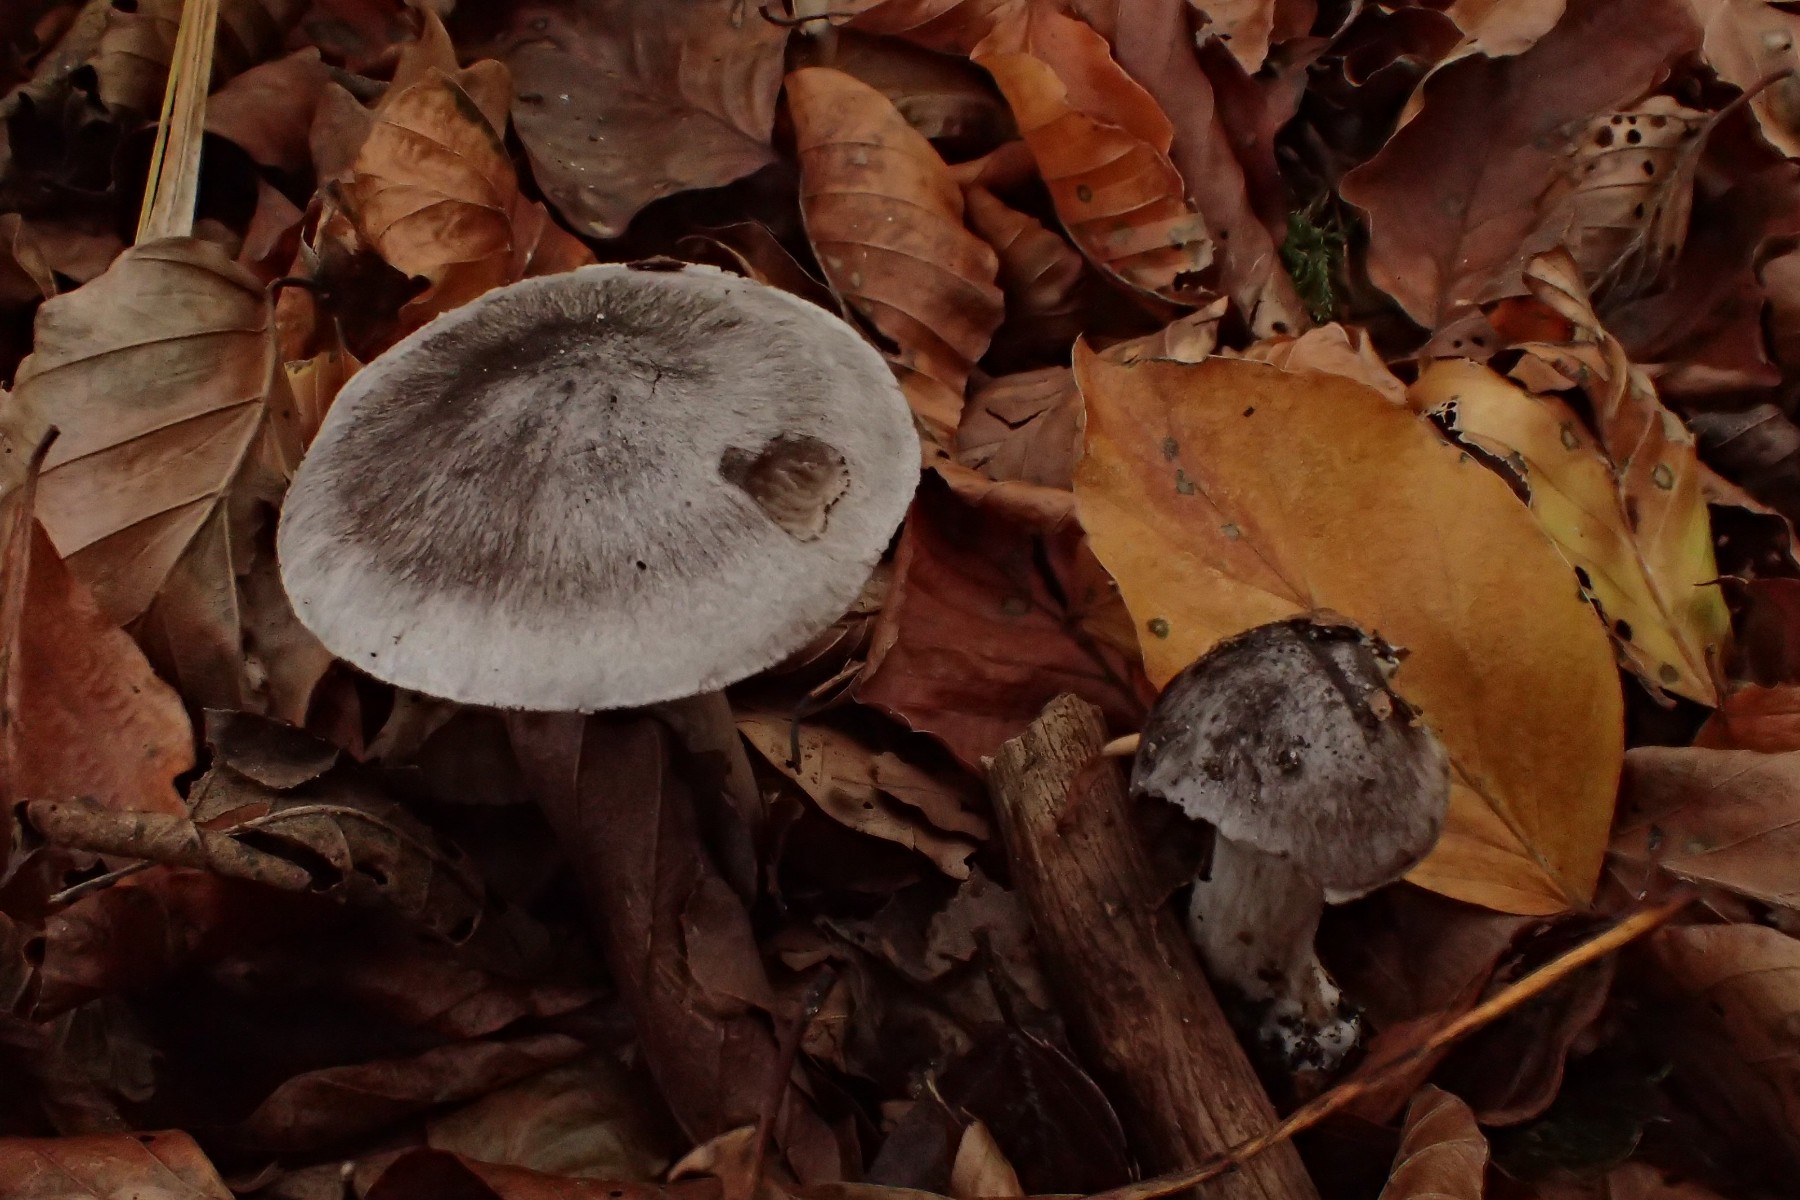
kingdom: Fungi
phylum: Basidiomycota
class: Agaricomycetes
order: Agaricales
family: Tricholomataceae
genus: Tricholoma
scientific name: Tricholoma sciodes
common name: stribet ridderhat
